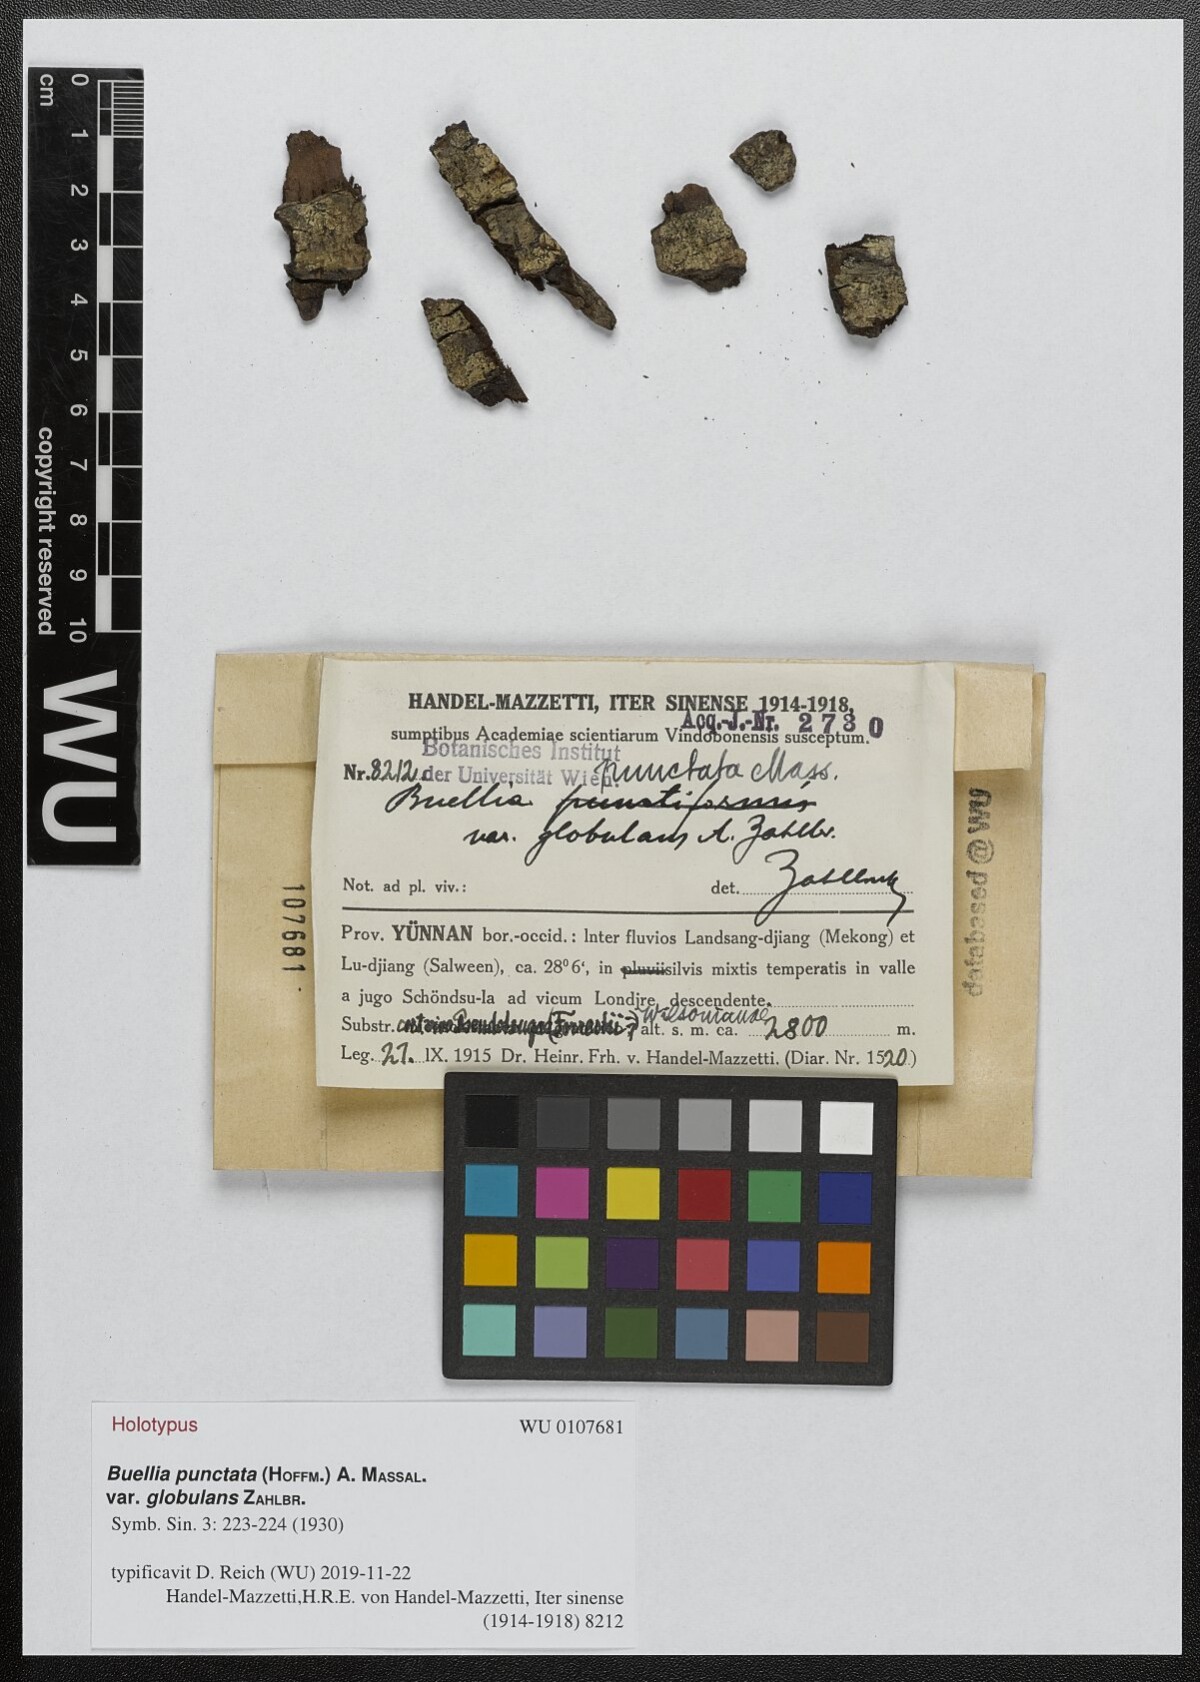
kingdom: Fungi
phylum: Ascomycota
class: Lecanoromycetes
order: Caliciales
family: Caliciaceae
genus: Amandinea
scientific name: Amandinea punctata
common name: Tiny button lichen
